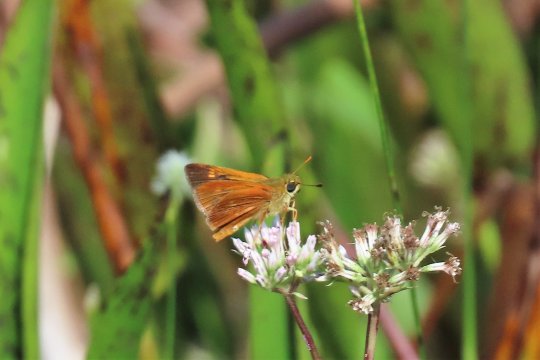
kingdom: Animalia
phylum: Arthropoda
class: Insecta
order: Lepidoptera
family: Hesperiidae
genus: Wallengrenia
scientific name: Wallengrenia otho
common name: Southern Broken-Dash
